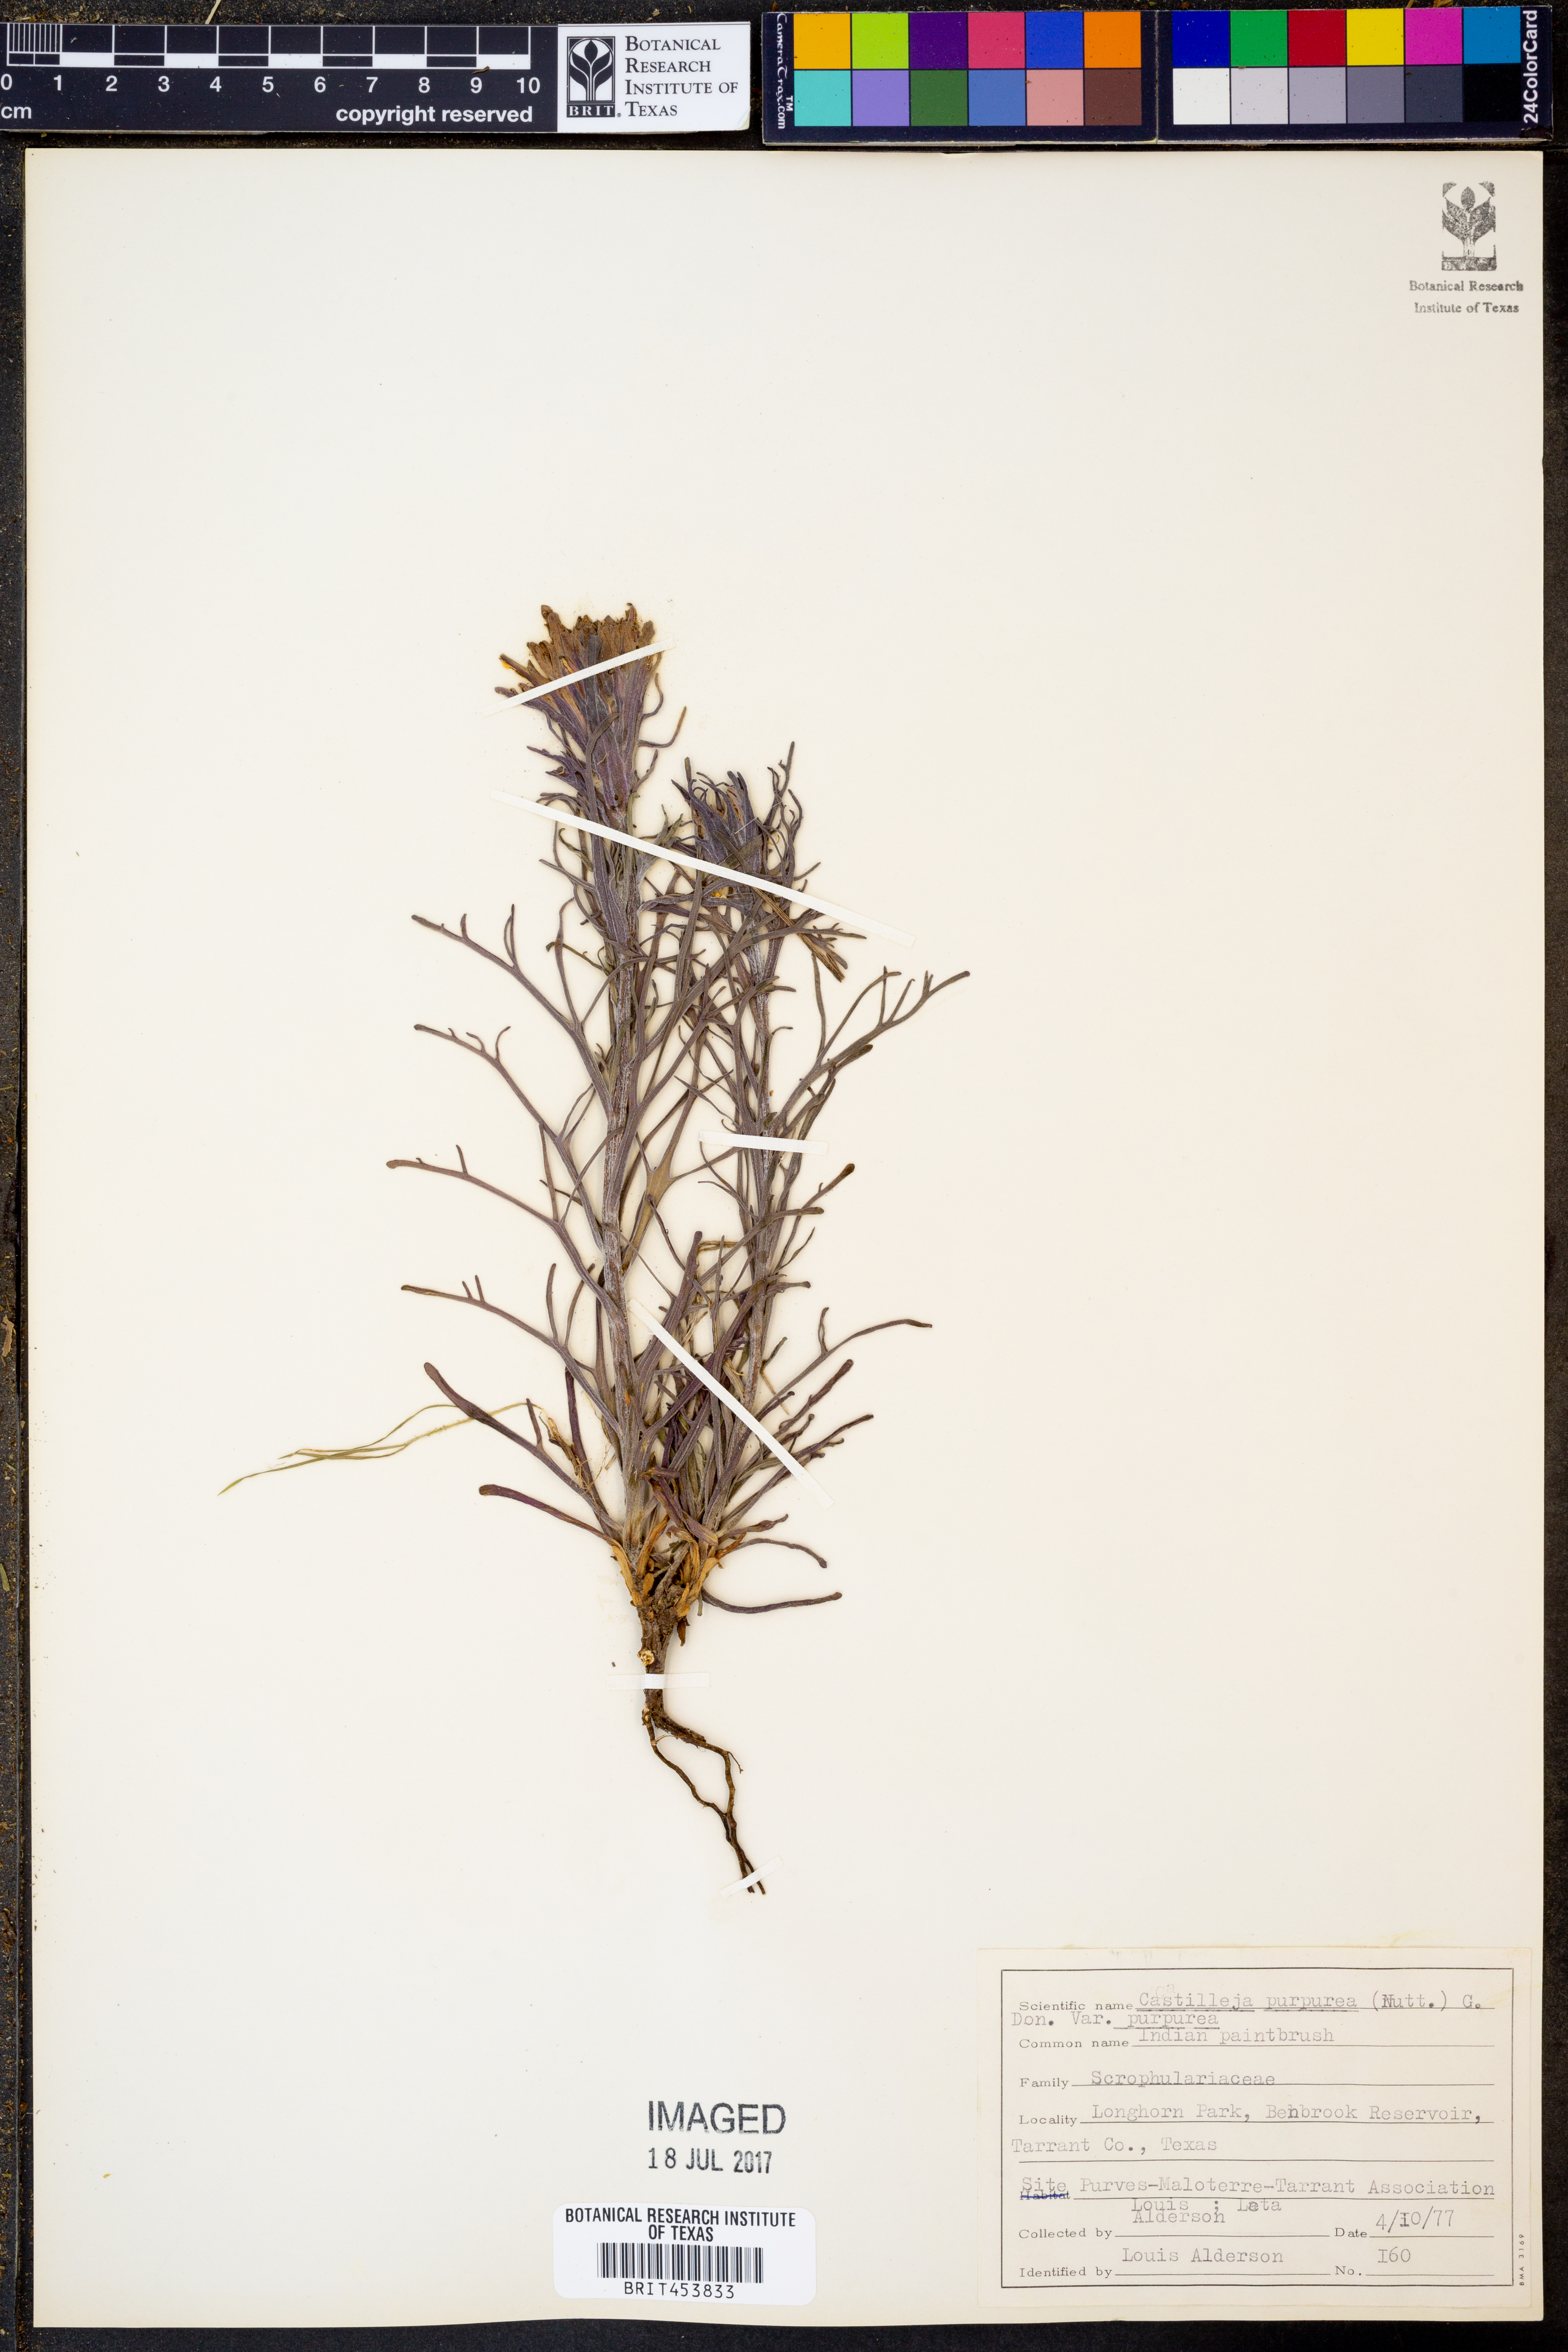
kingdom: Plantae
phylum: Tracheophyta
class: Magnoliopsida
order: Lamiales
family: Orobanchaceae
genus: Castilleja
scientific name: Castilleja purpurea
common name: Plains paintbrush
